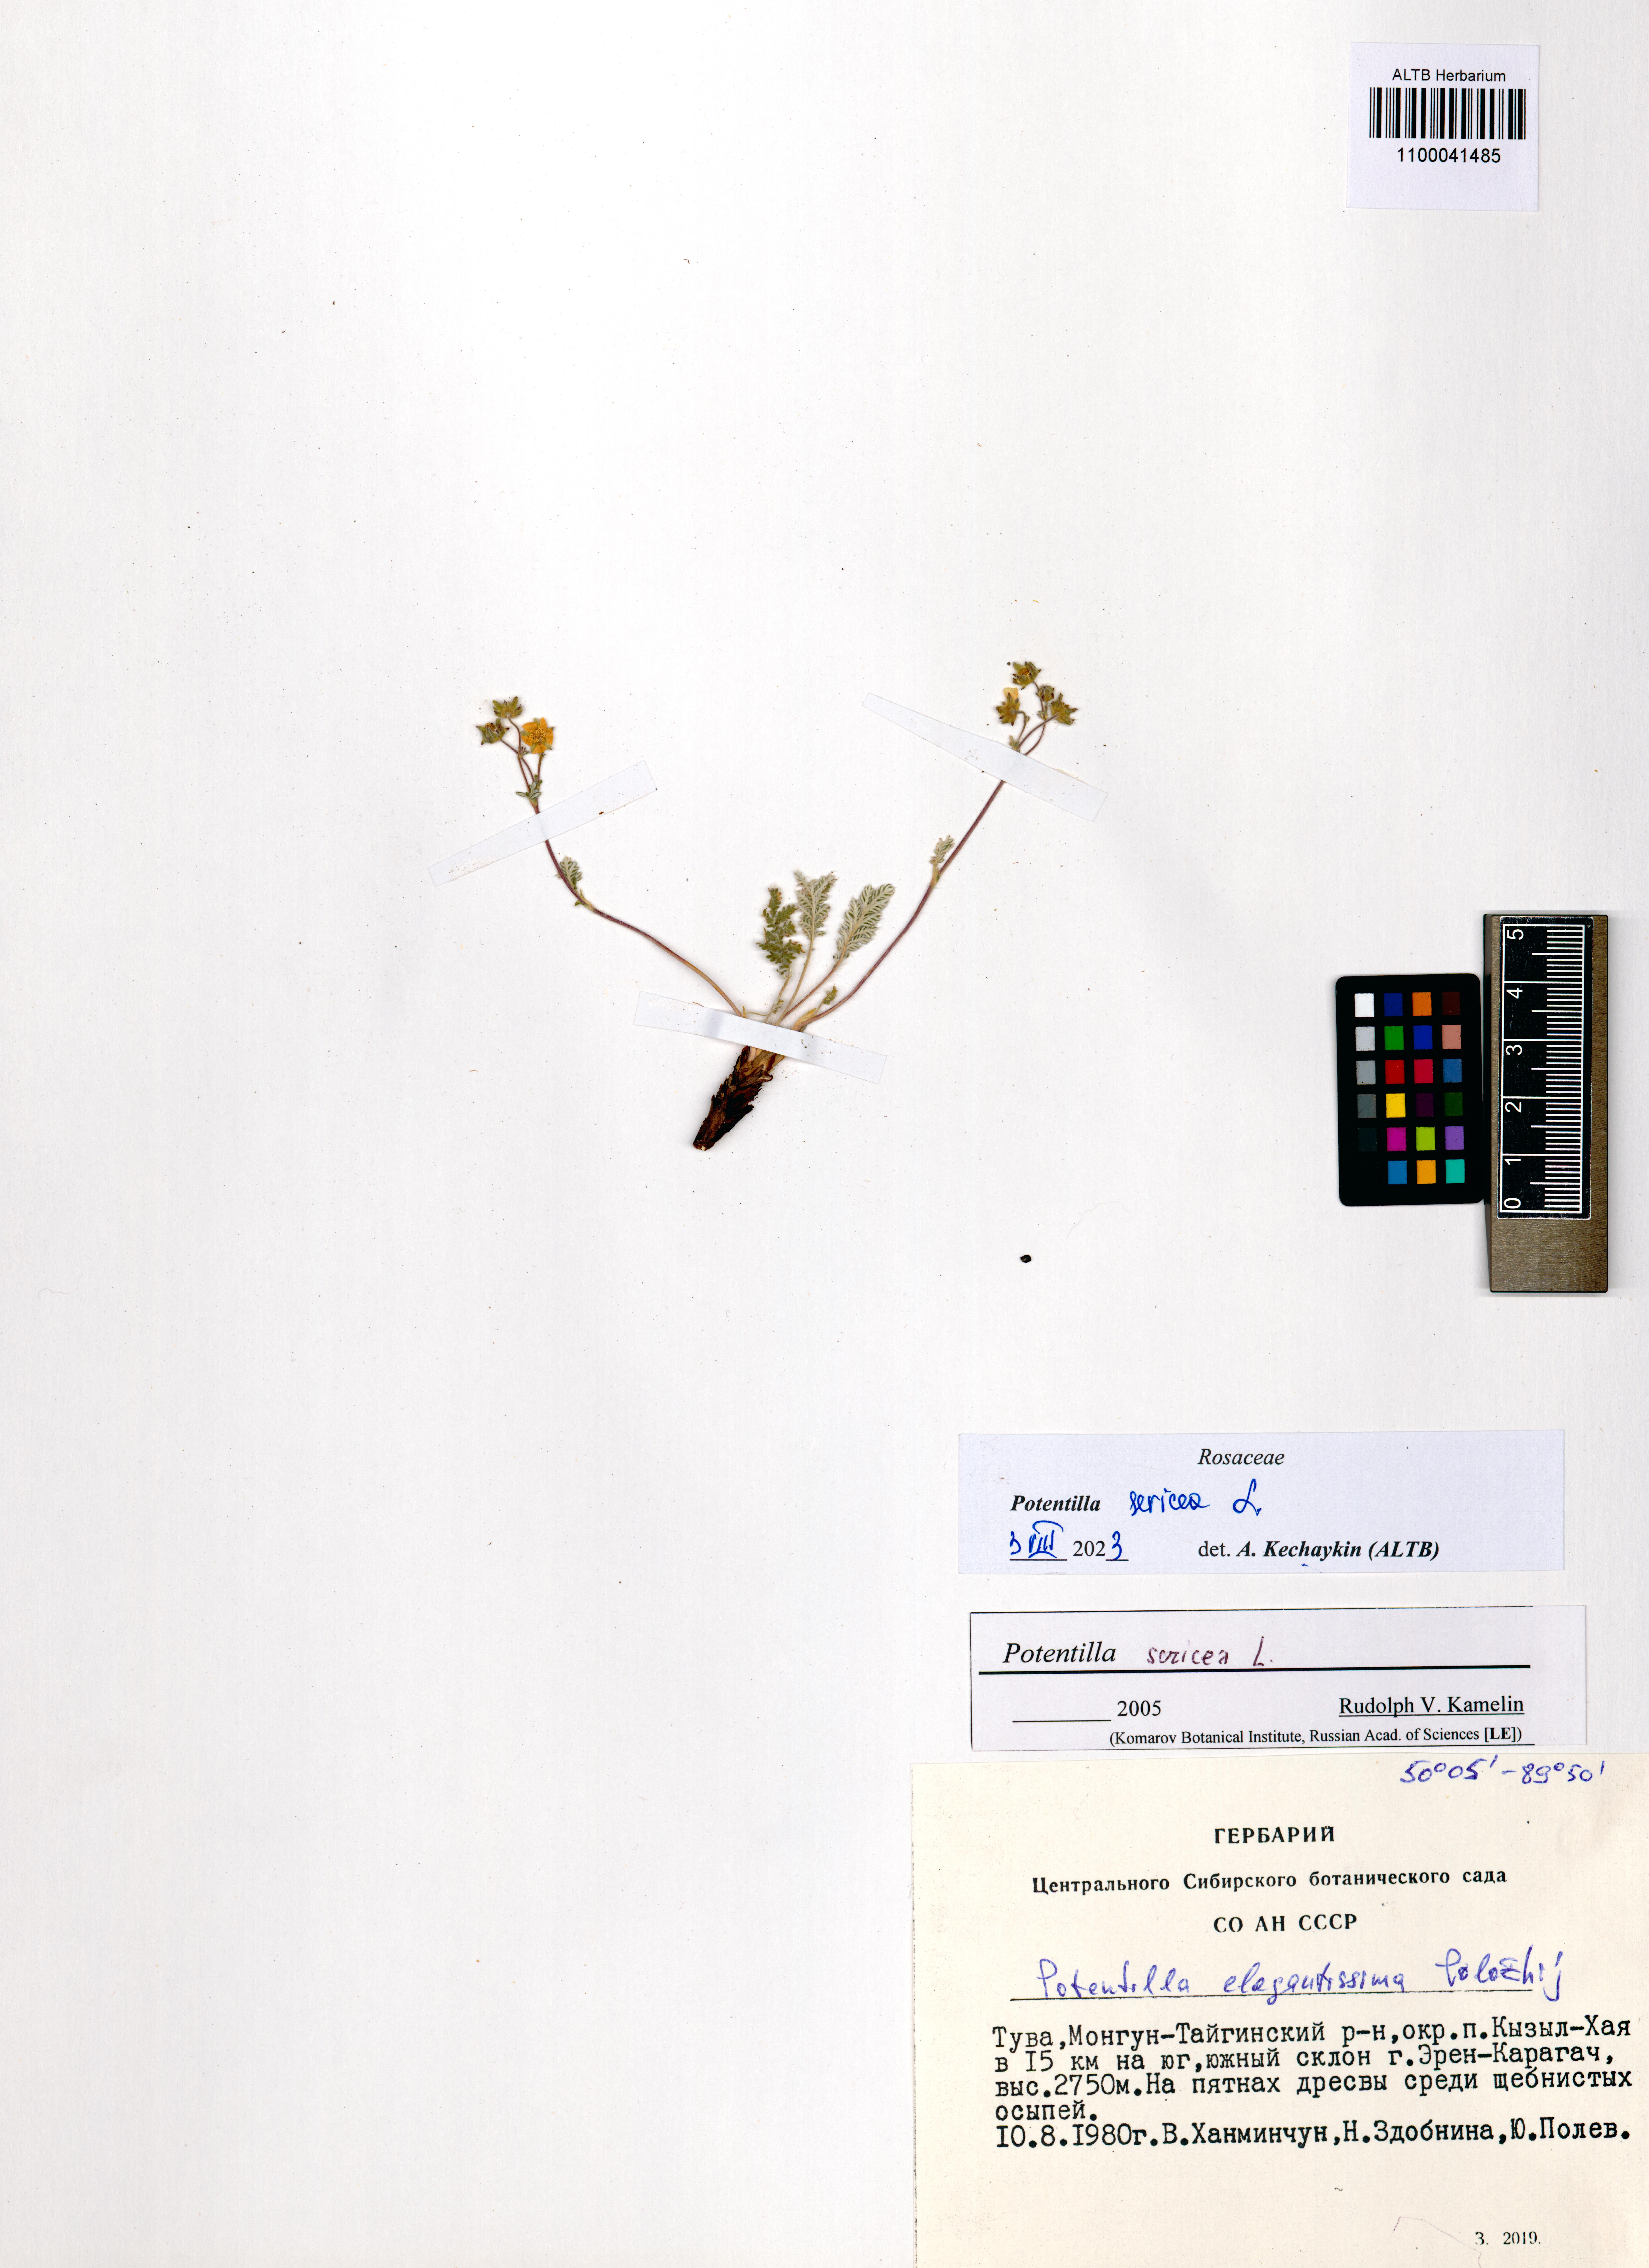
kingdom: Plantae
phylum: Tracheophyta
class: Magnoliopsida
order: Rosales
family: Rosaceae
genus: Potentilla
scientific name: Potentilla sericea
